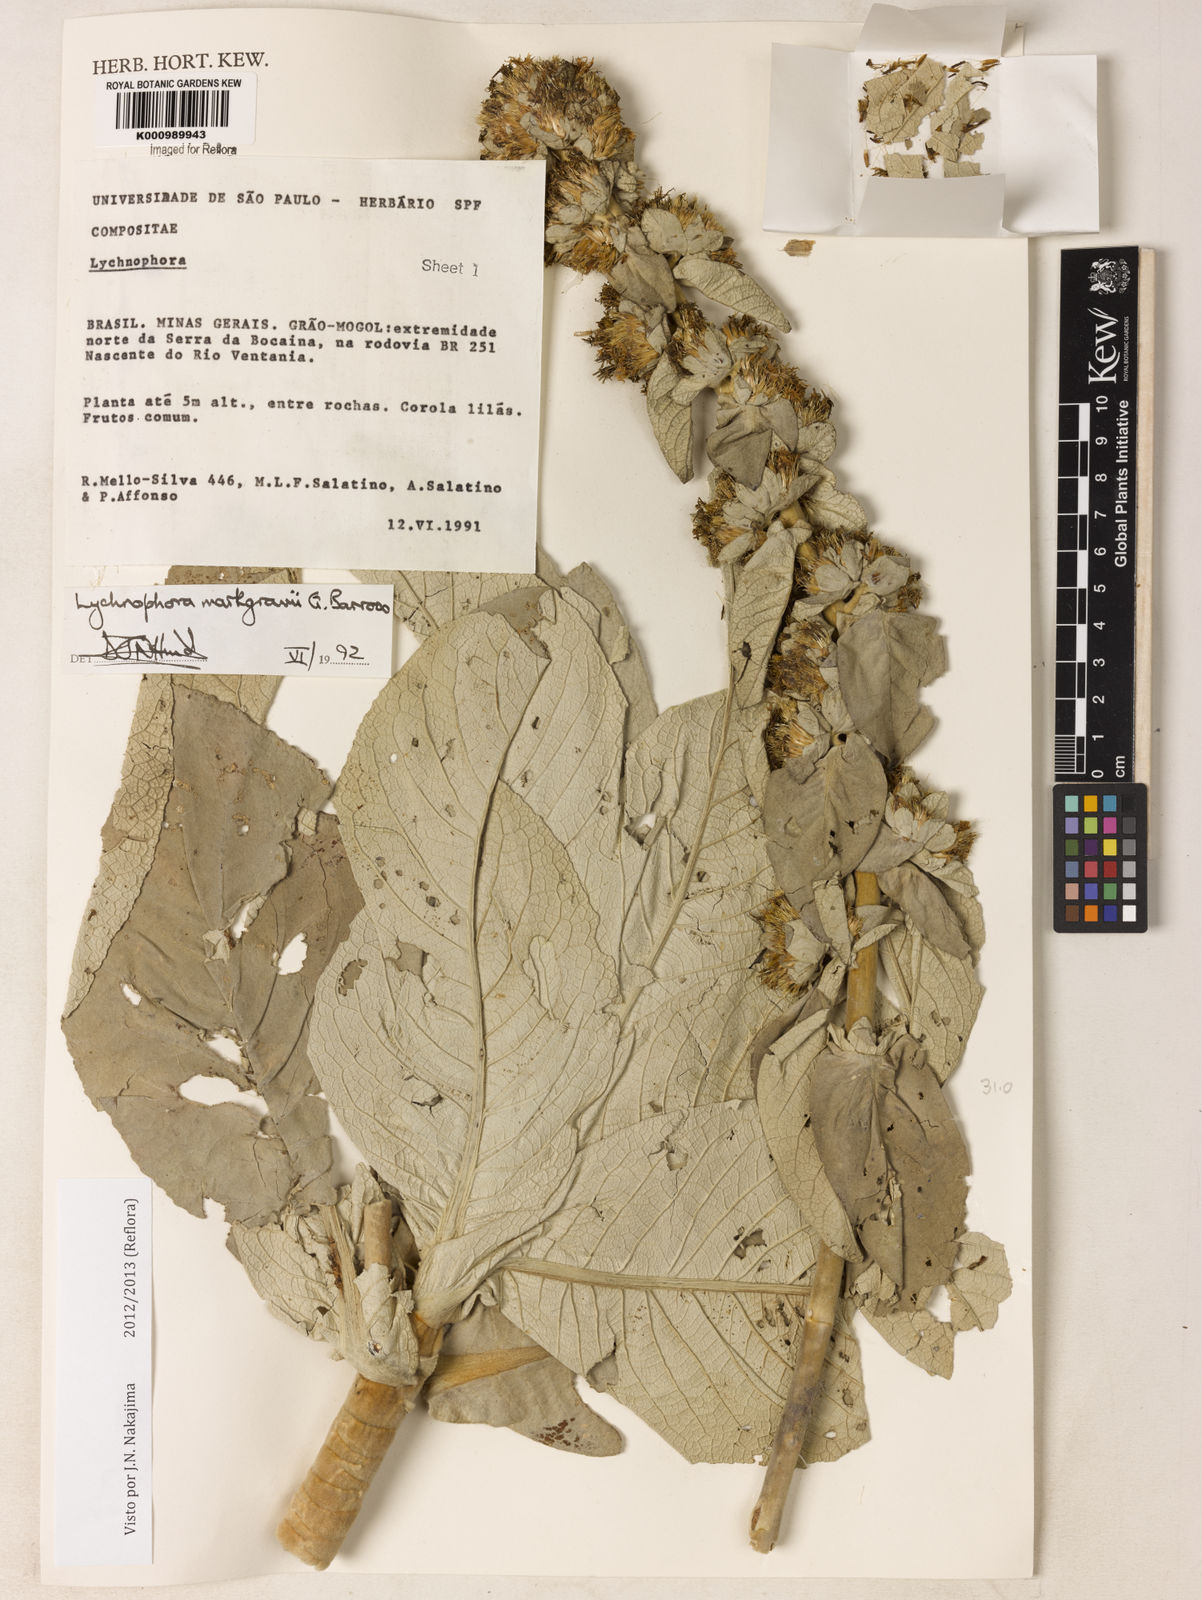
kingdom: Plantae
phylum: Tracheophyta
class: Magnoliopsida
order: Asterales
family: Asteraceae
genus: Lychnophora
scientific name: Lychnophora
